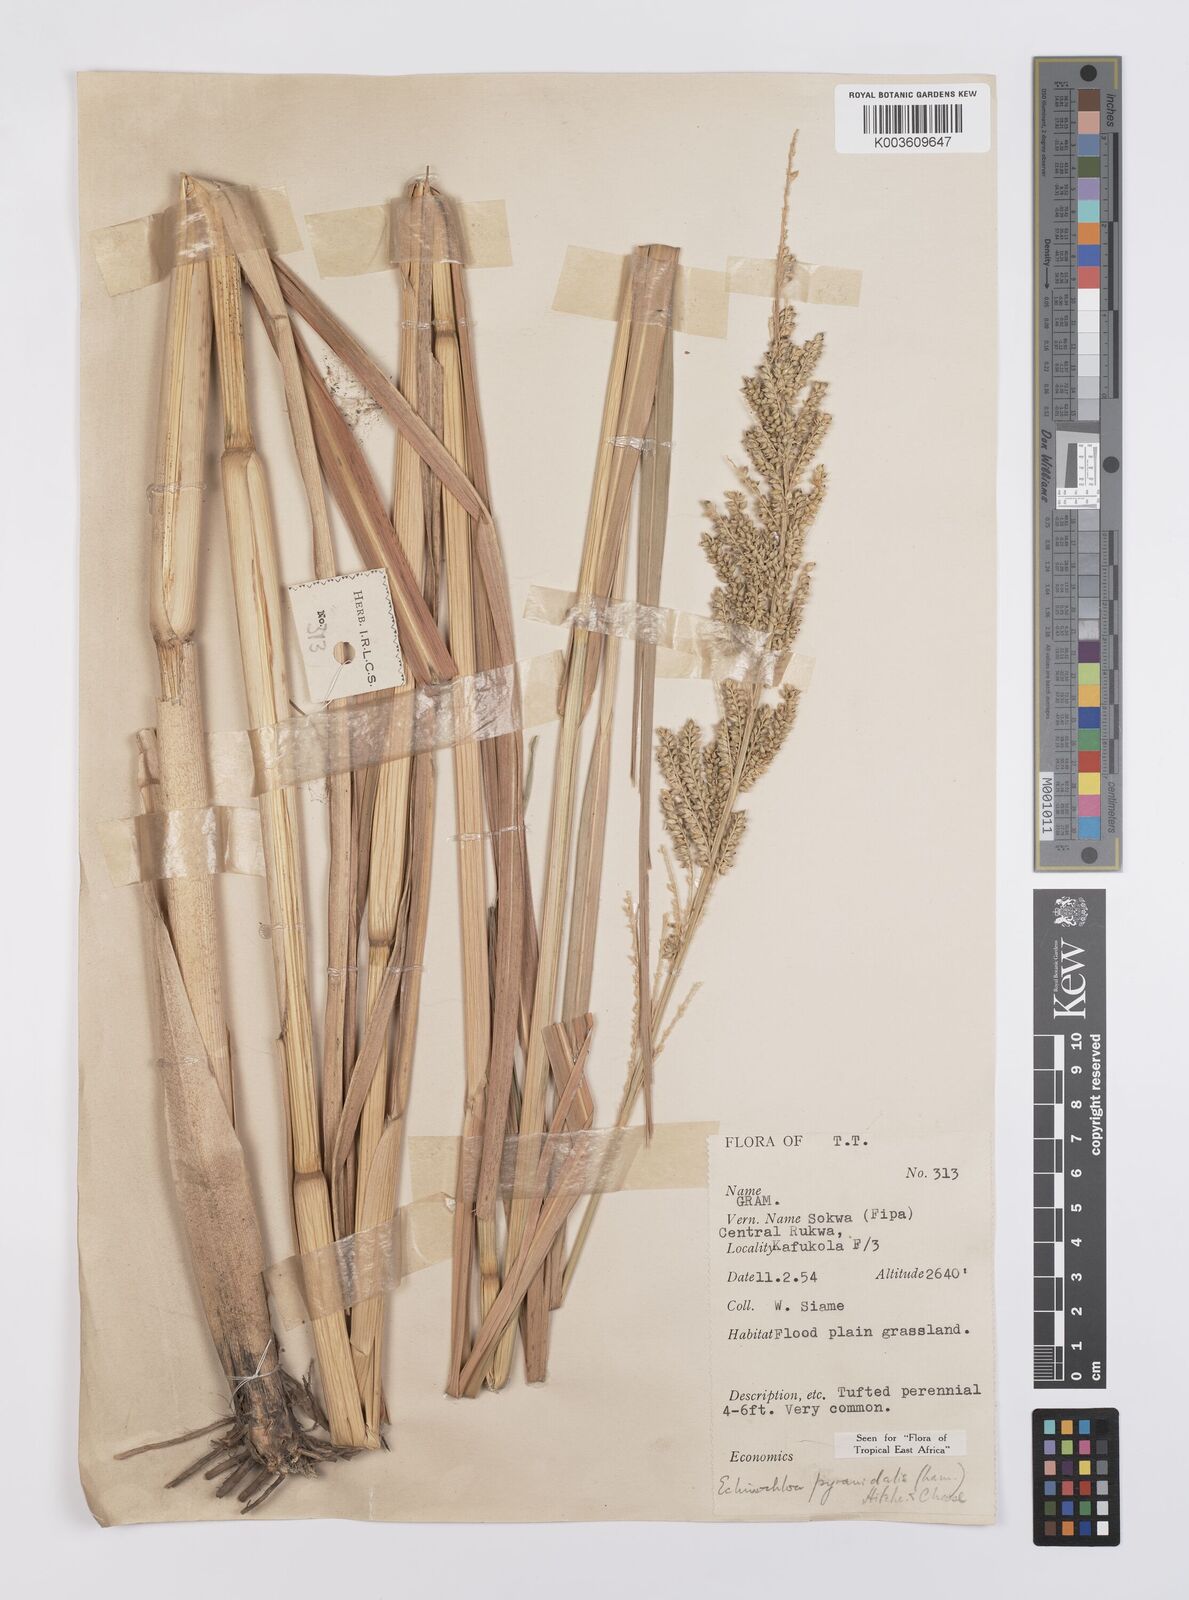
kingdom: Plantae
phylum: Tracheophyta
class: Liliopsida
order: Poales
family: Poaceae
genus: Echinochloa
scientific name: Echinochloa pyramidalis
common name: Antelope grass
